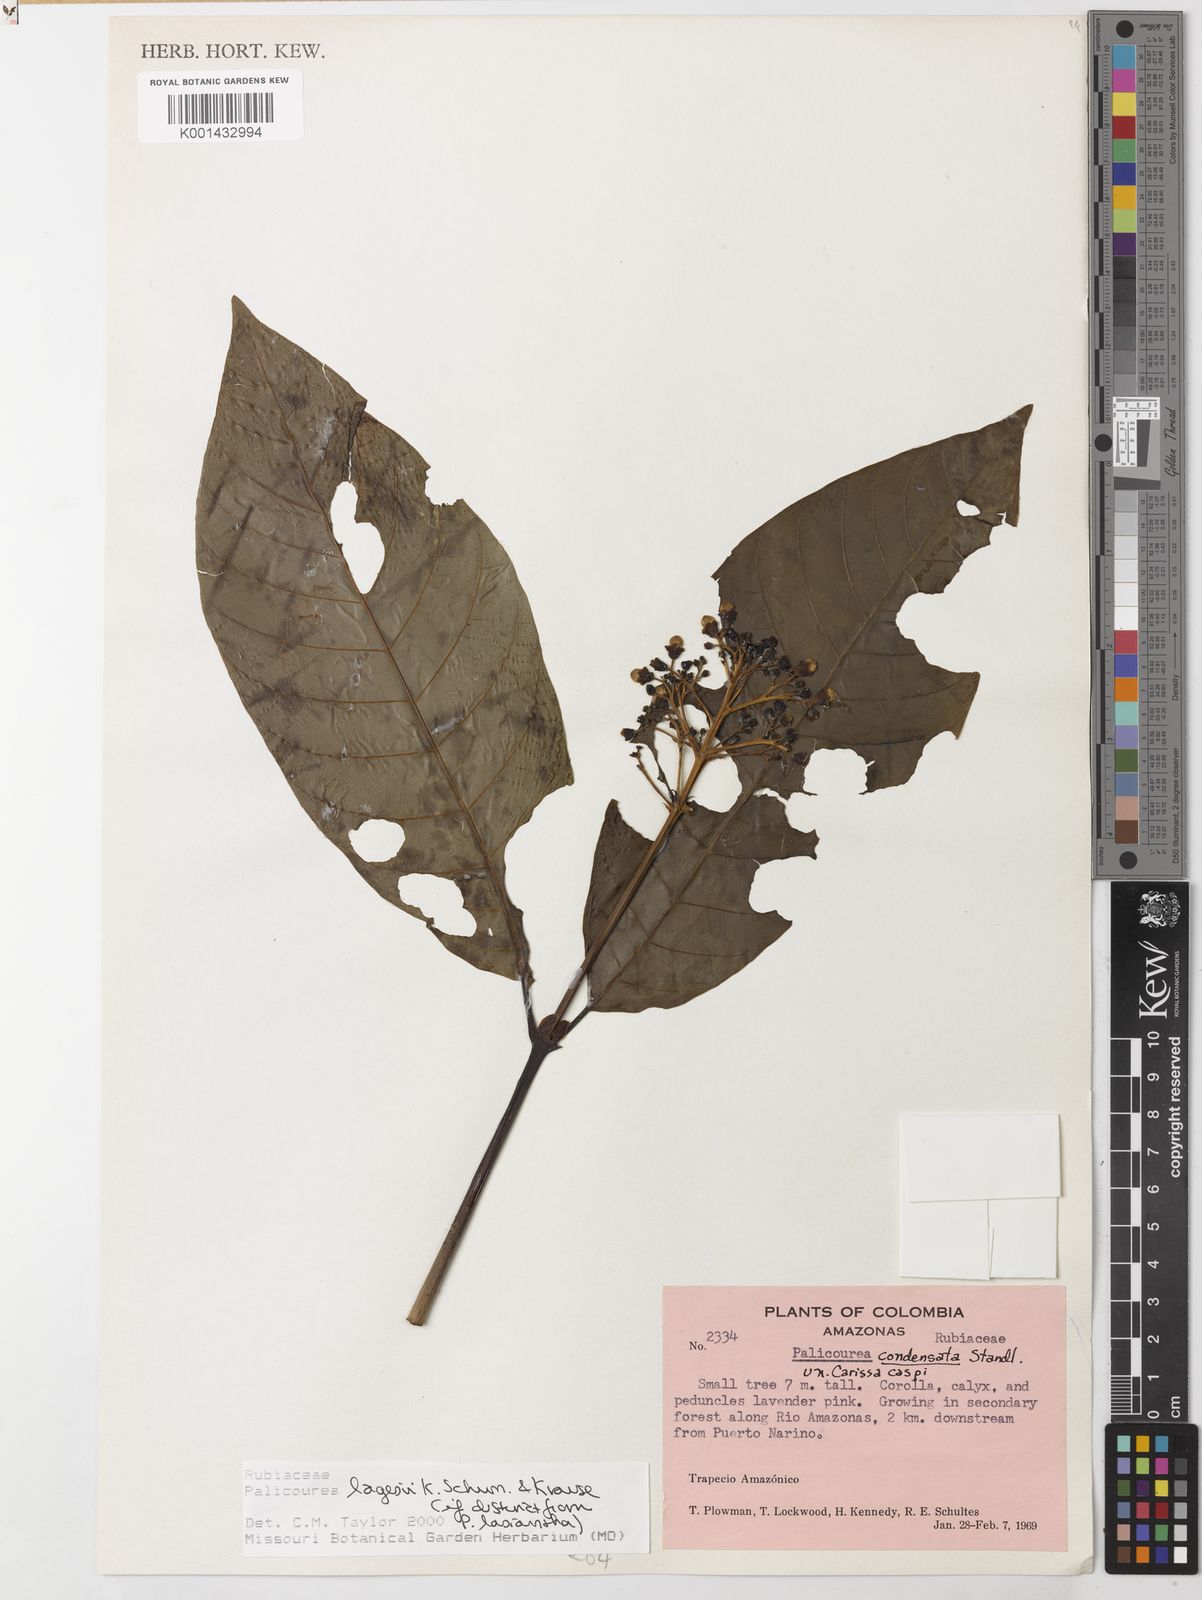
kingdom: Plantae
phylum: Tracheophyta
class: Magnoliopsida
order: Gentianales
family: Rubiaceae
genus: Palicourea
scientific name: Palicourea lasiantha
